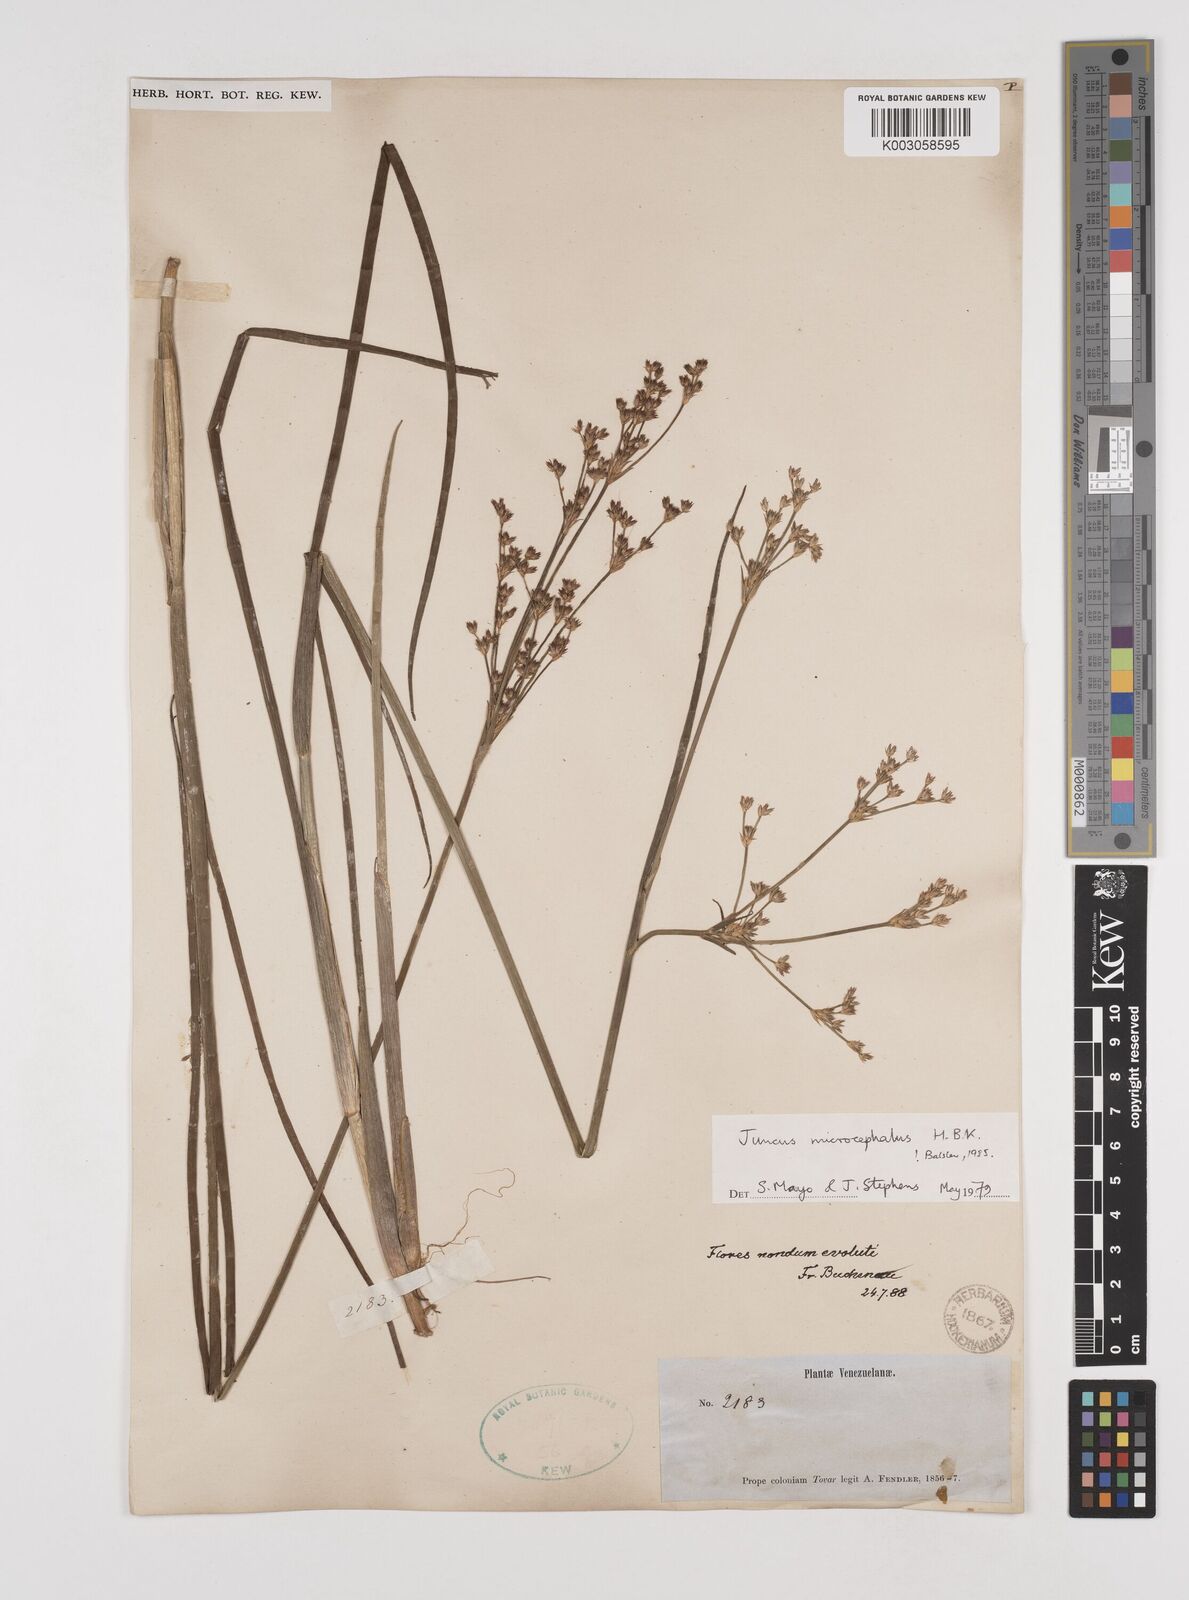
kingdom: Plantae
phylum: Tracheophyta
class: Liliopsida
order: Poales
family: Juncaceae
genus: Juncus
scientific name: Juncus
